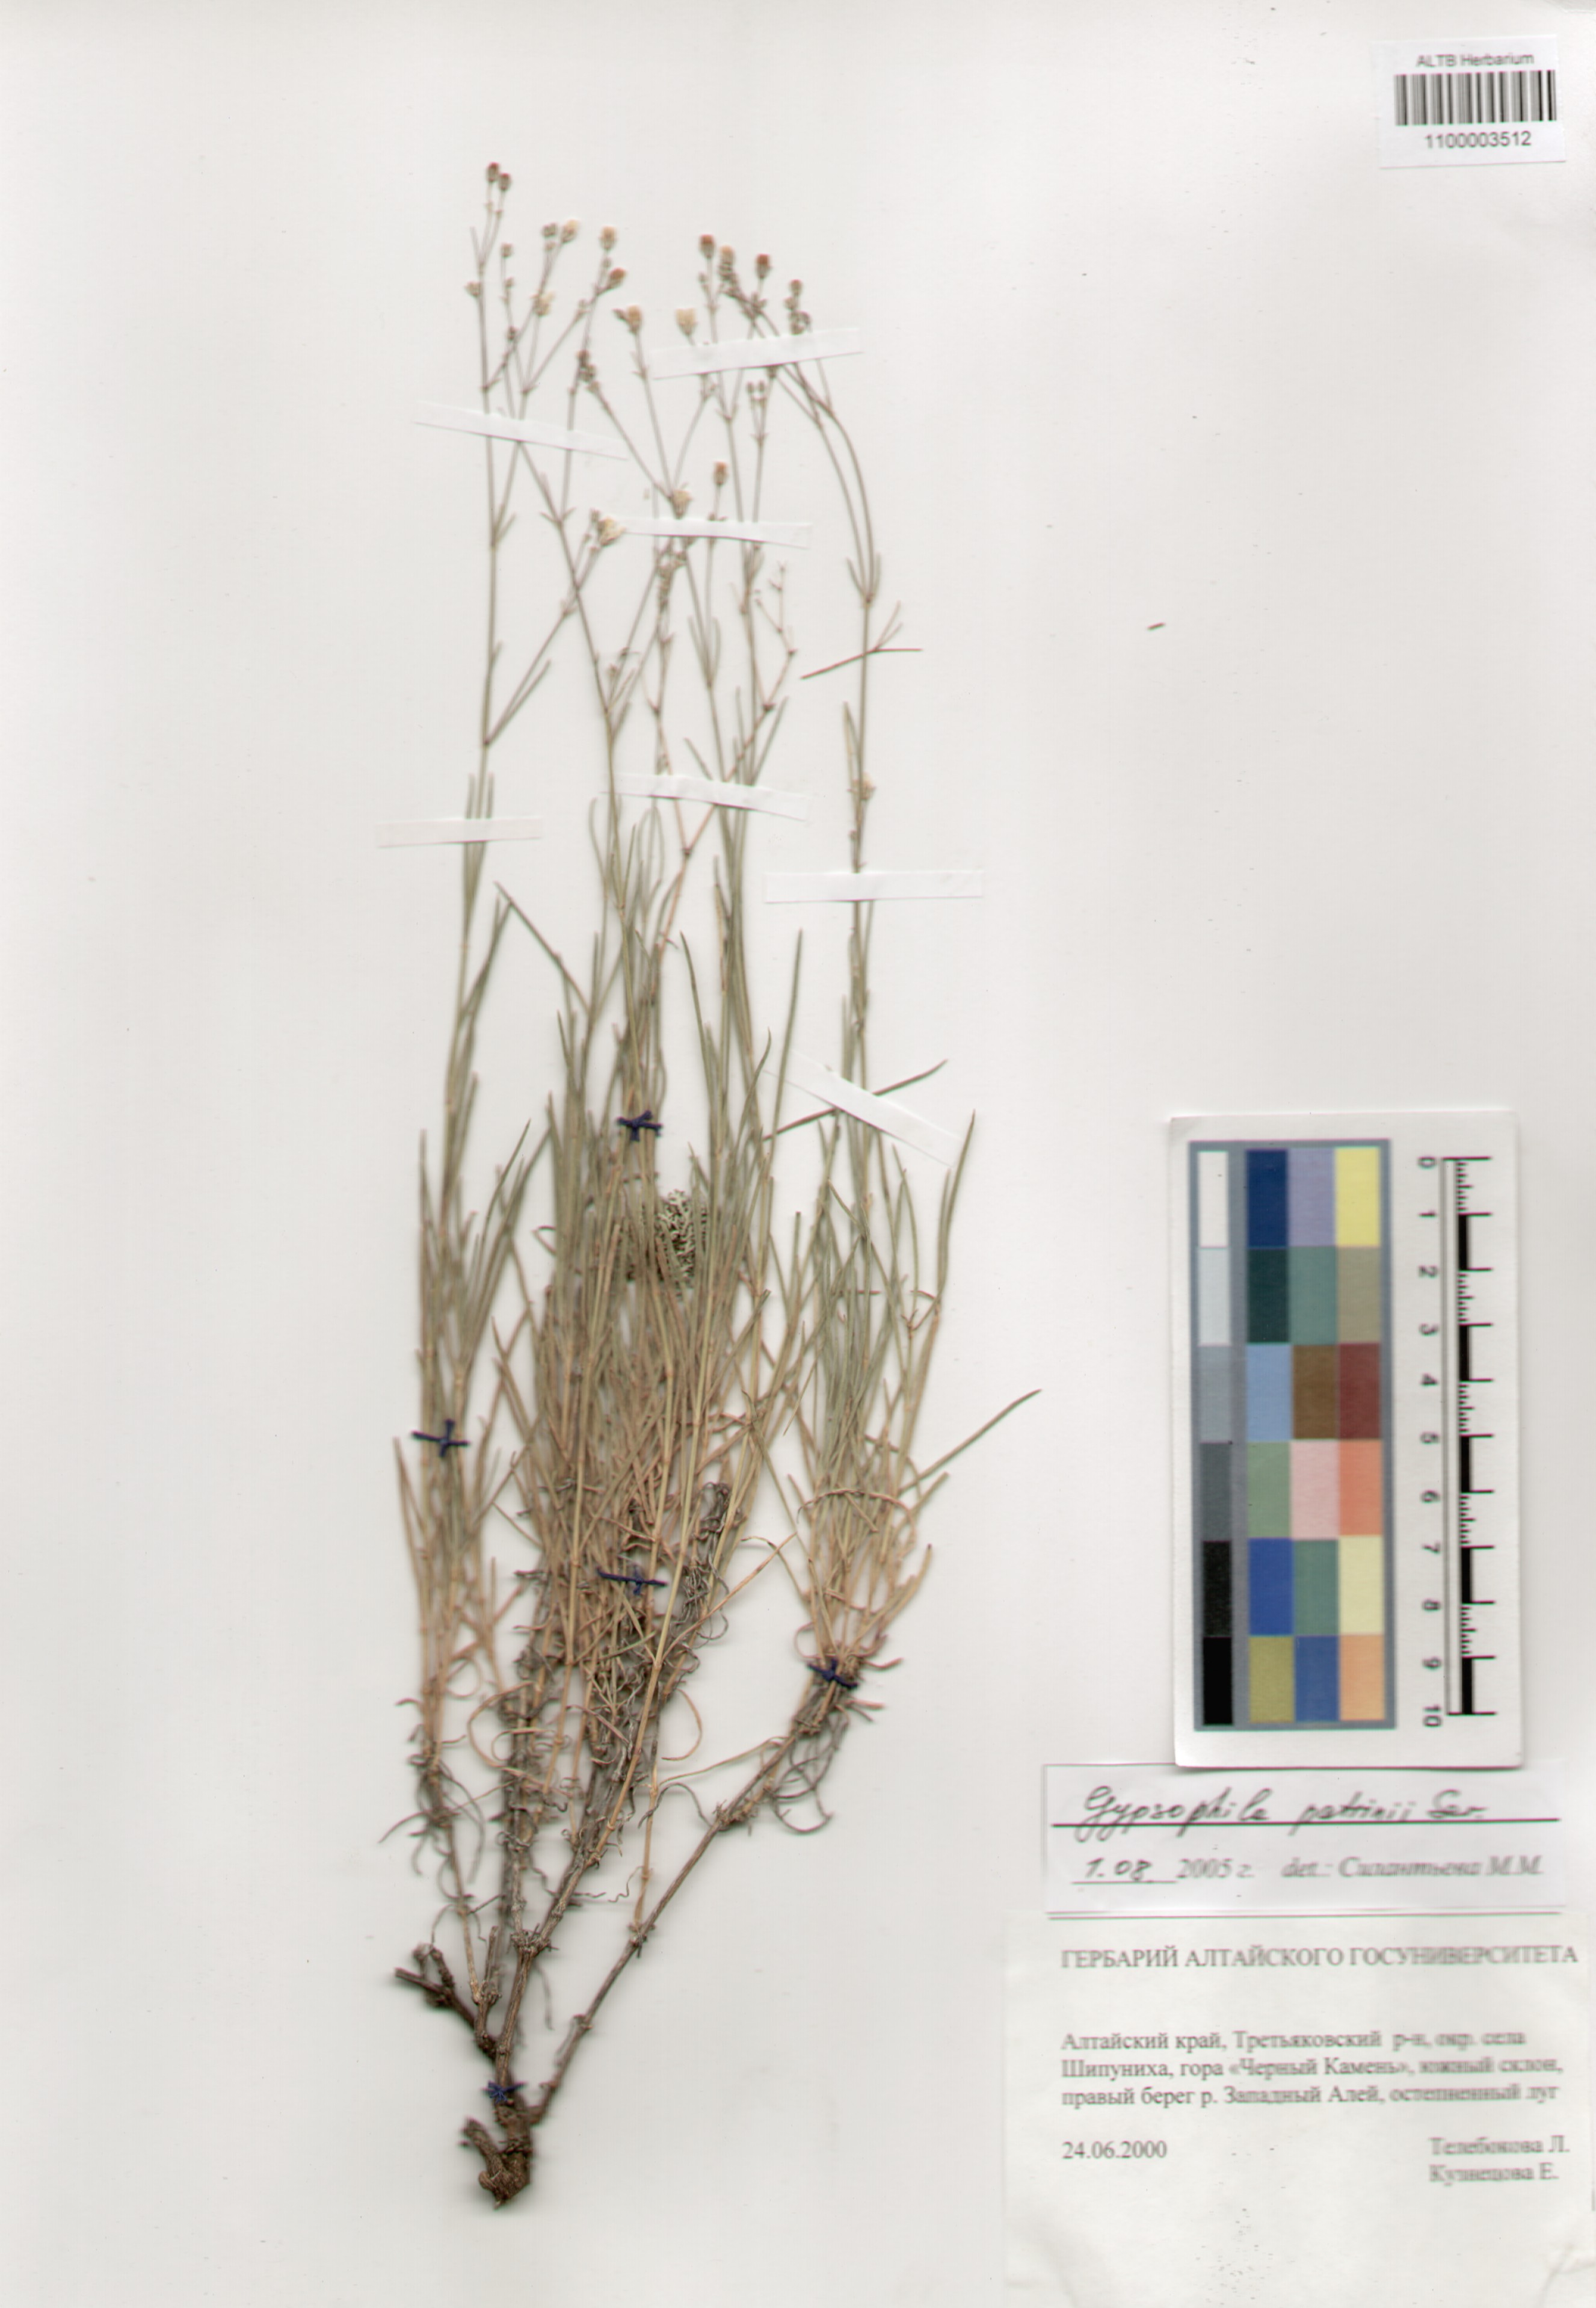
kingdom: Plantae
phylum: Tracheophyta
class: Magnoliopsida
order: Caryophyllales
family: Caryophyllaceae
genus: Gypsophila
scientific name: Gypsophila patrinii
